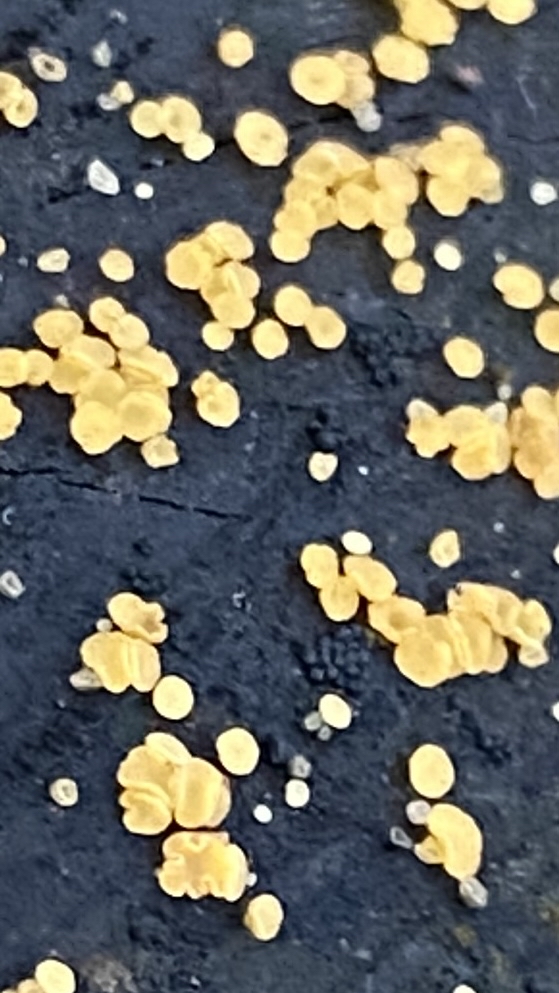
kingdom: Fungi
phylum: Ascomycota
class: Leotiomycetes
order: Helotiales
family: Helotiaceae
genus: Bisporella
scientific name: Bisporella subpallida
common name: lys snitskive
